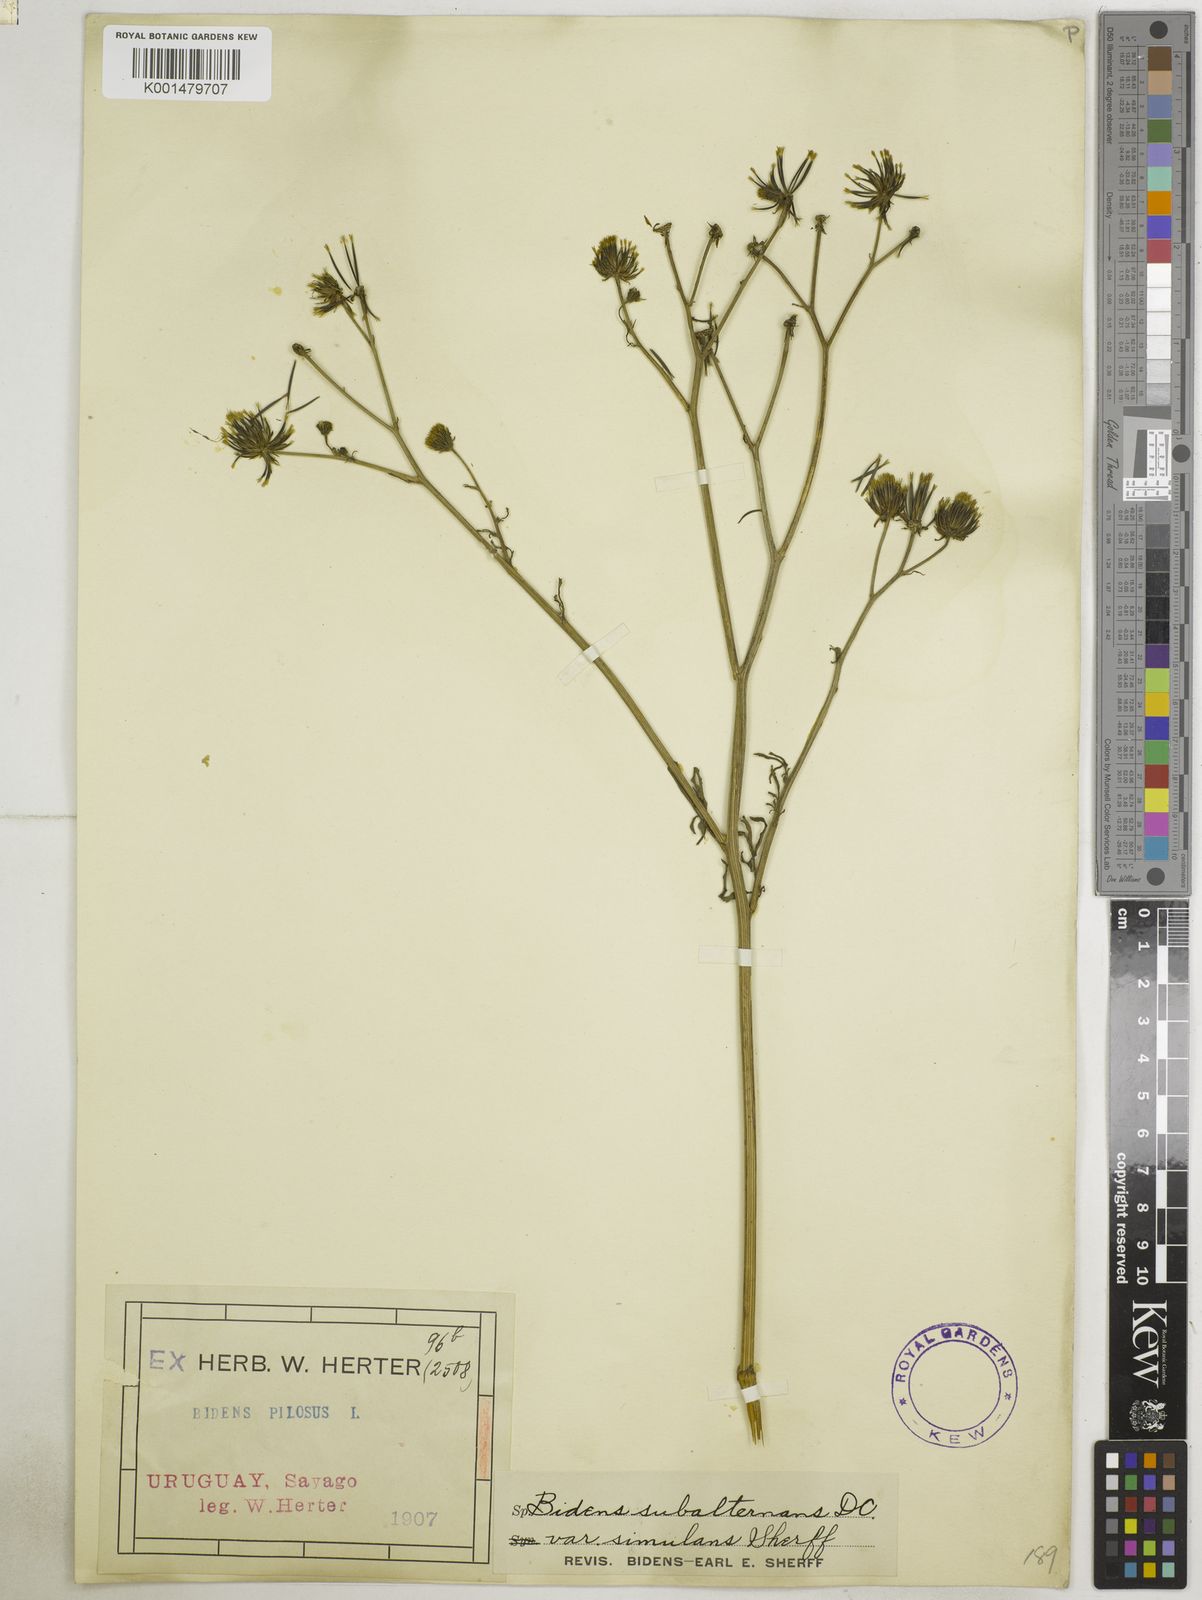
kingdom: Plantae
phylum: Tracheophyta
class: Magnoliopsida
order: Asterales
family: Asteraceae
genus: Bidens
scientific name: Bidens subalternans
